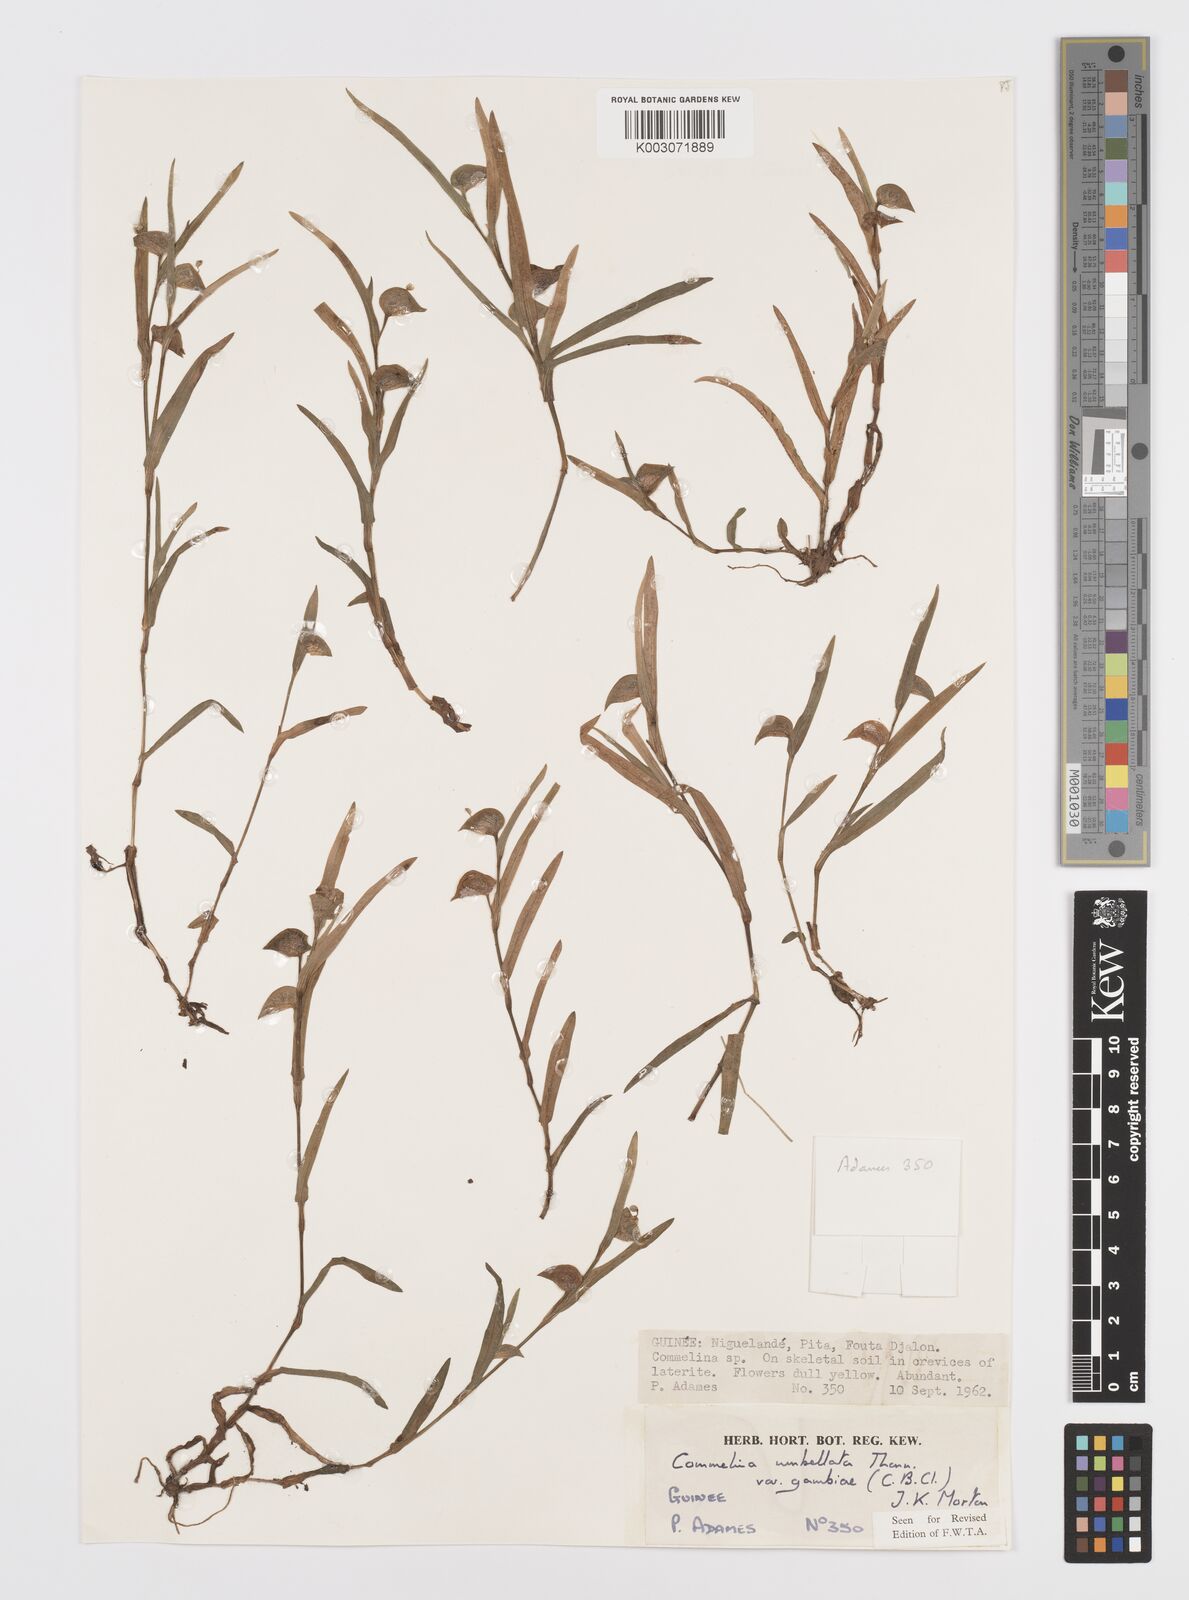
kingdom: Plantae
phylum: Tracheophyta
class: Liliopsida
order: Commelinales
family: Commelinaceae
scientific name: Commelinaceae
